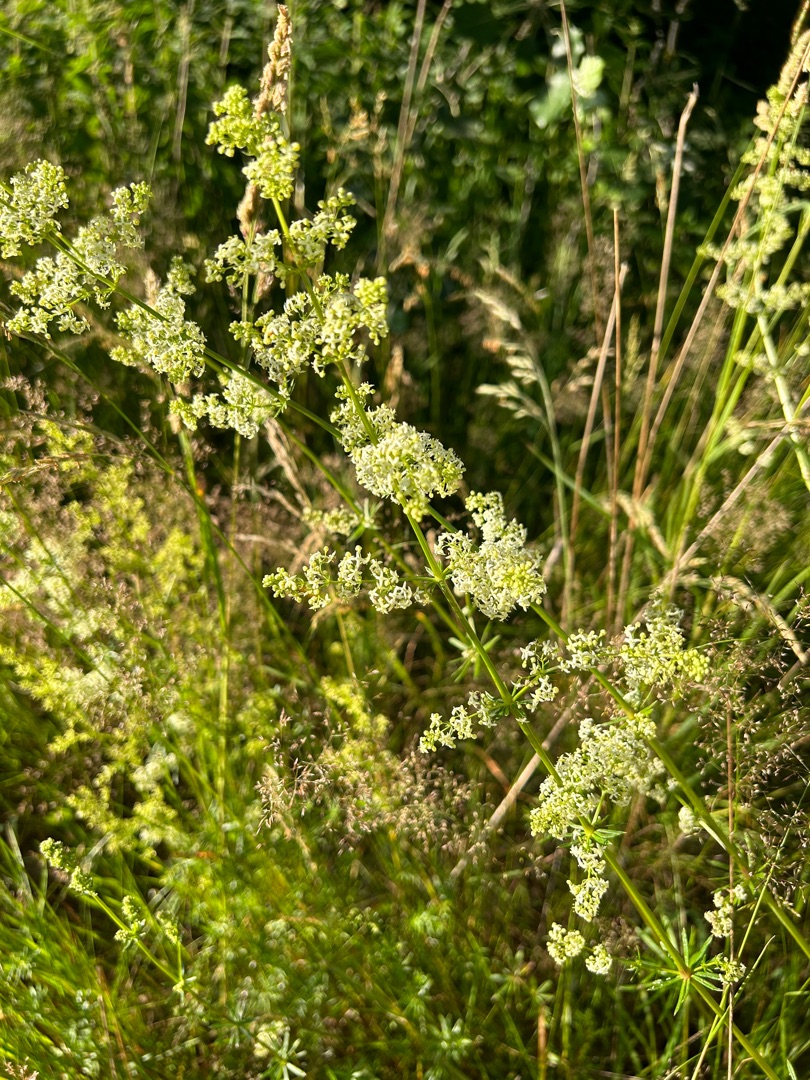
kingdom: Plantae
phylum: Tracheophyta
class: Magnoliopsida
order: Gentianales
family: Rubiaceae
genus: Galium
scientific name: Galium mollugo
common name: Hvid snerre
